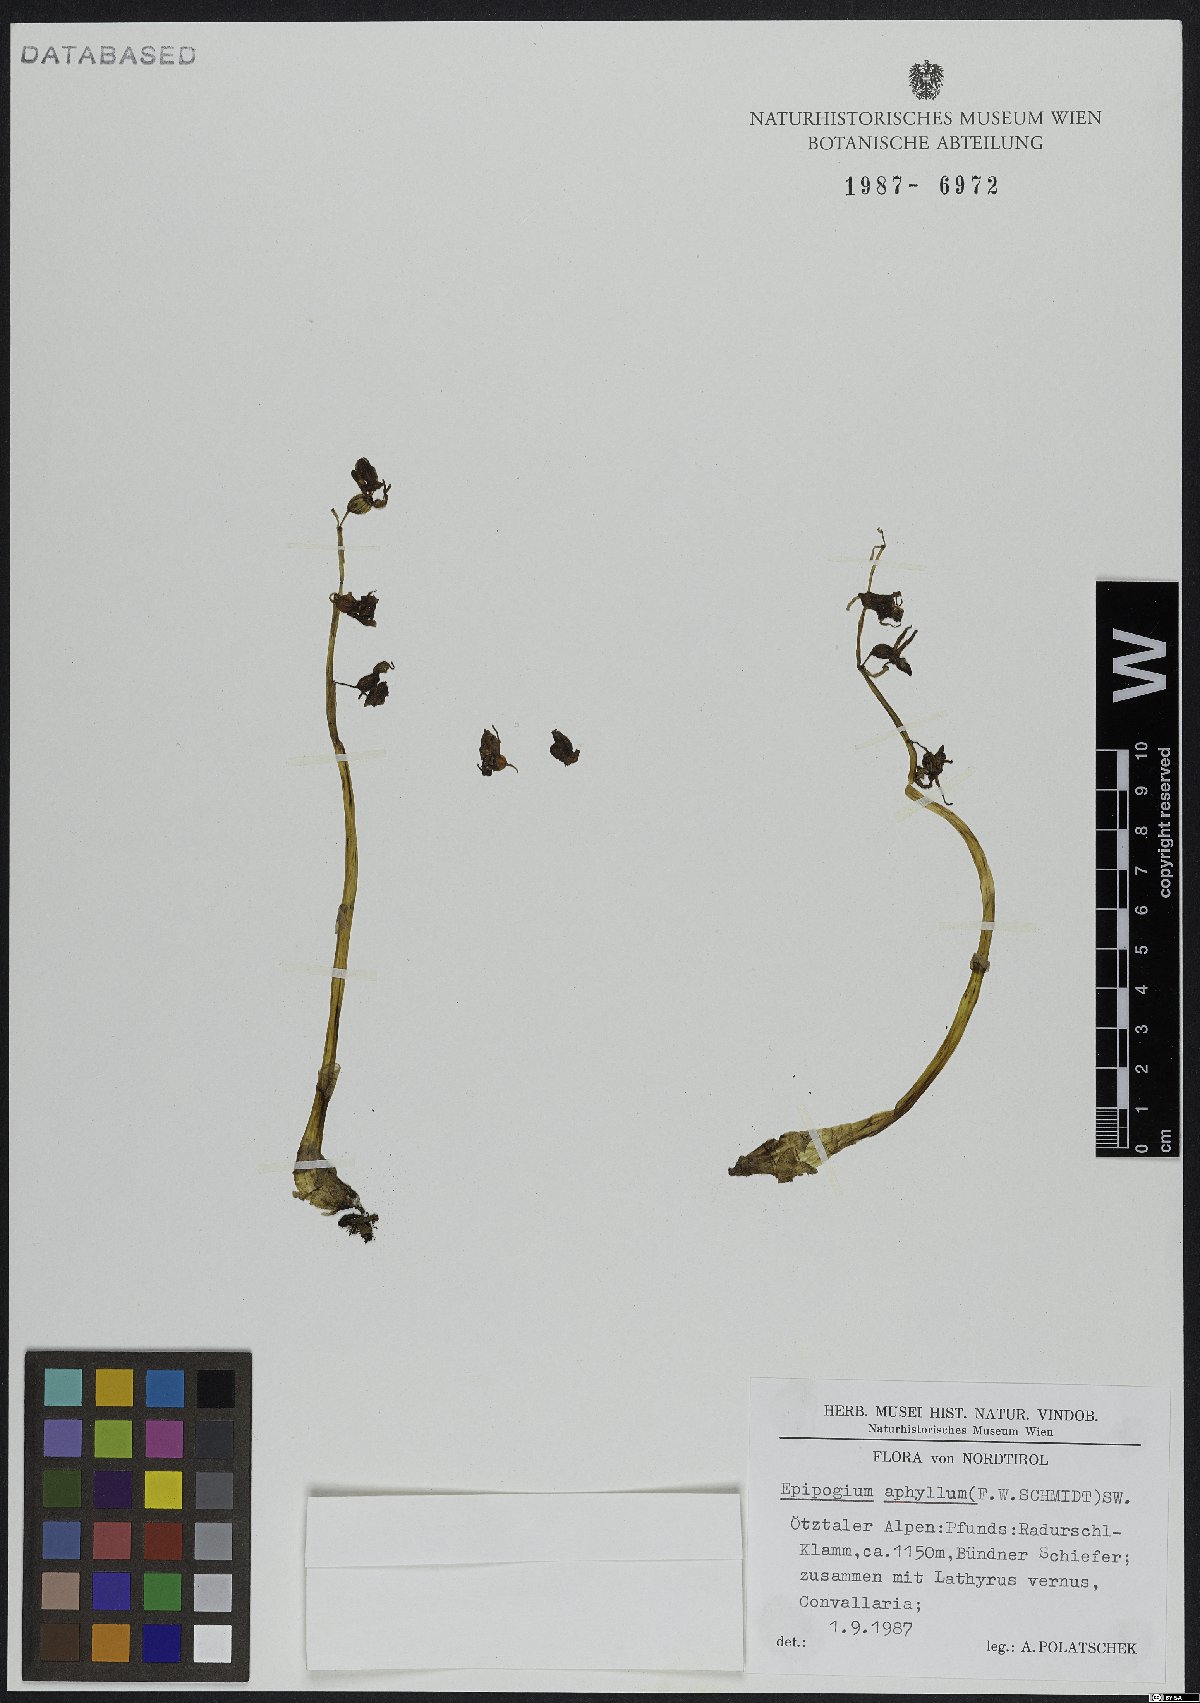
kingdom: Plantae
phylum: Tracheophyta
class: Liliopsida
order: Asparagales
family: Orchidaceae
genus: Epipogium
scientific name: Epipogium aphyllum
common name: Ghost orchid
